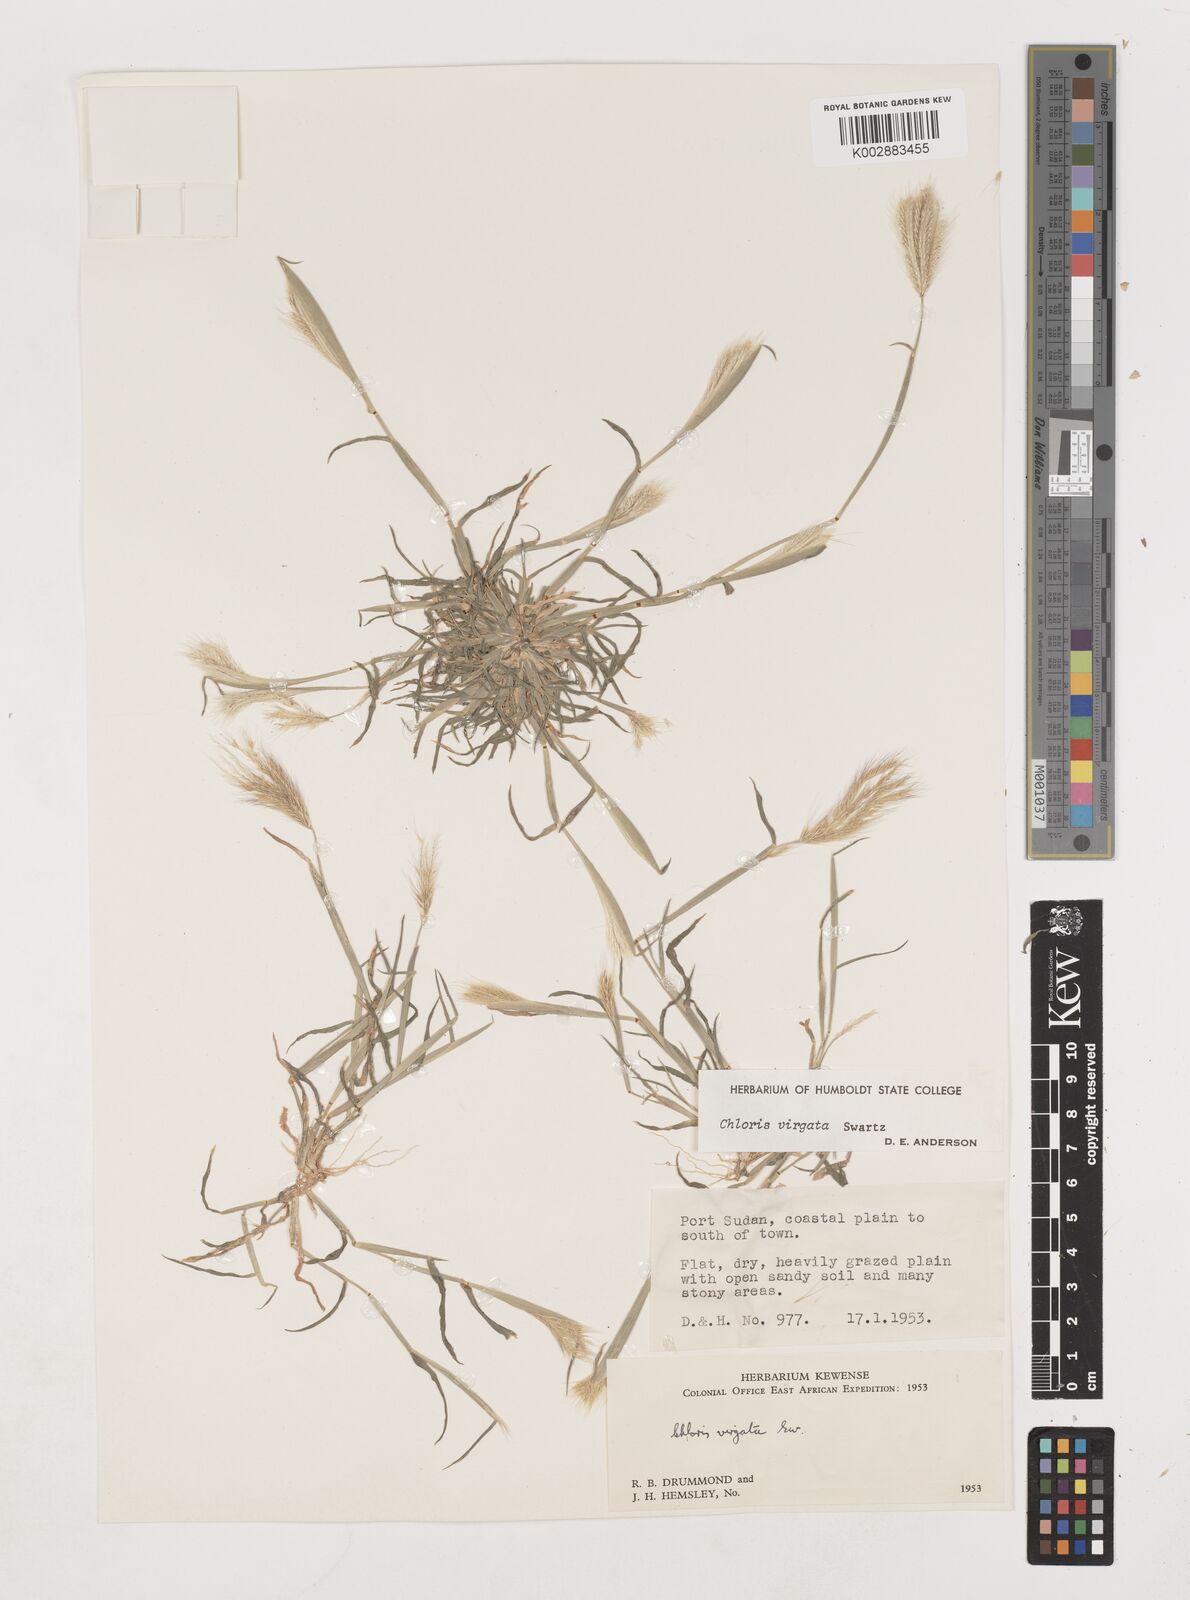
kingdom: Plantae
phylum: Tracheophyta
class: Liliopsida
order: Poales
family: Poaceae
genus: Chloris
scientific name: Chloris virgata
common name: Feathery rhodes-grass
